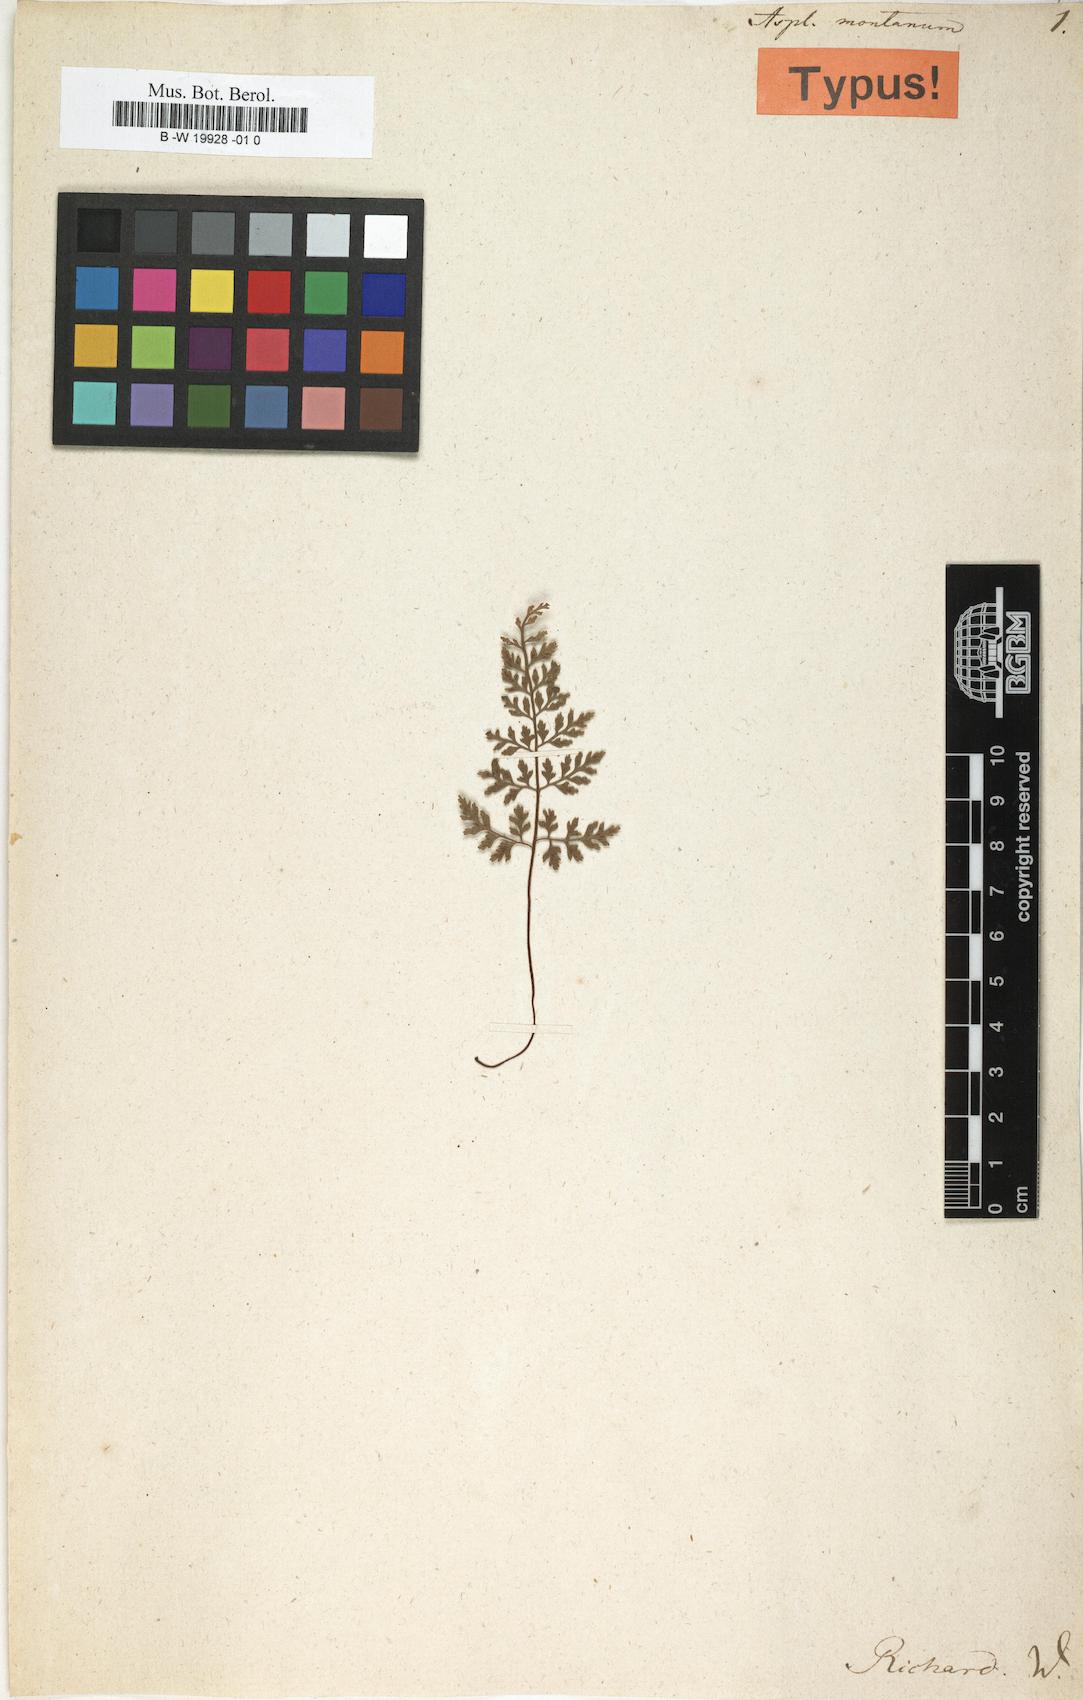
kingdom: Plantae
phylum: Tracheophyta
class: Polypodiopsida
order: Polypodiales
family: Aspleniaceae
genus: Asplenium
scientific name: Asplenium montanum
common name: Mountain spleenwort
